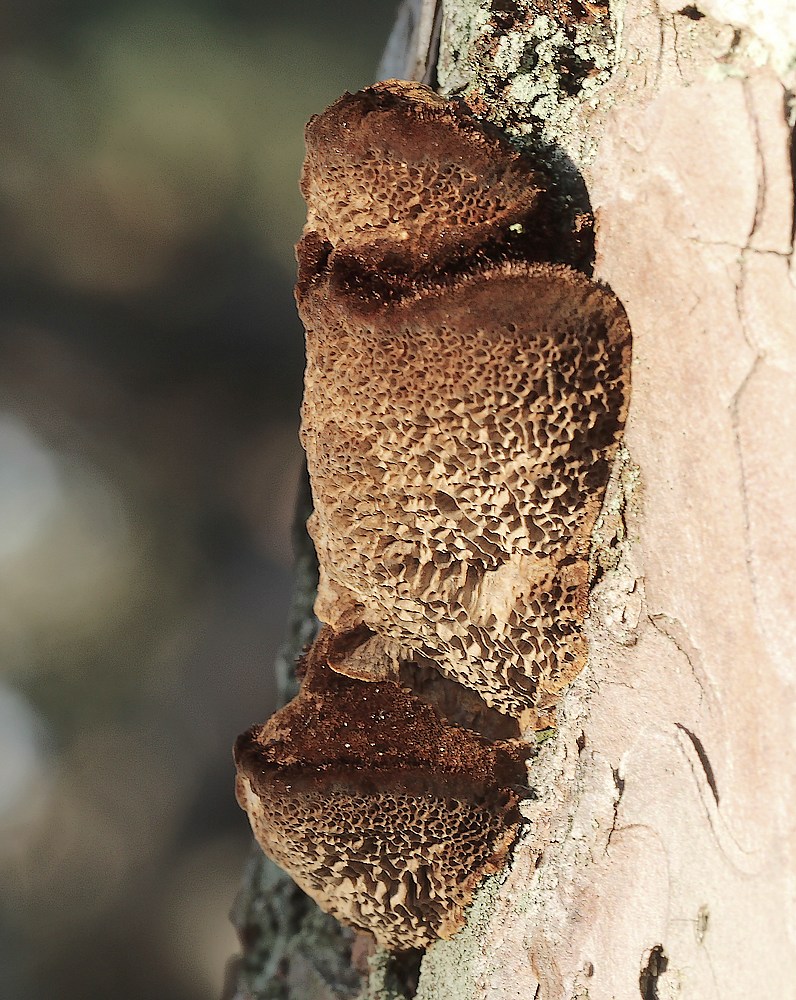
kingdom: Fungi
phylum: Basidiomycota
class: Agaricomycetes
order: Hymenochaetales
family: Hymenochaetaceae
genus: Porodaedalea
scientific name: Porodaedalea pini
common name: fyrre-ildporesvamp
